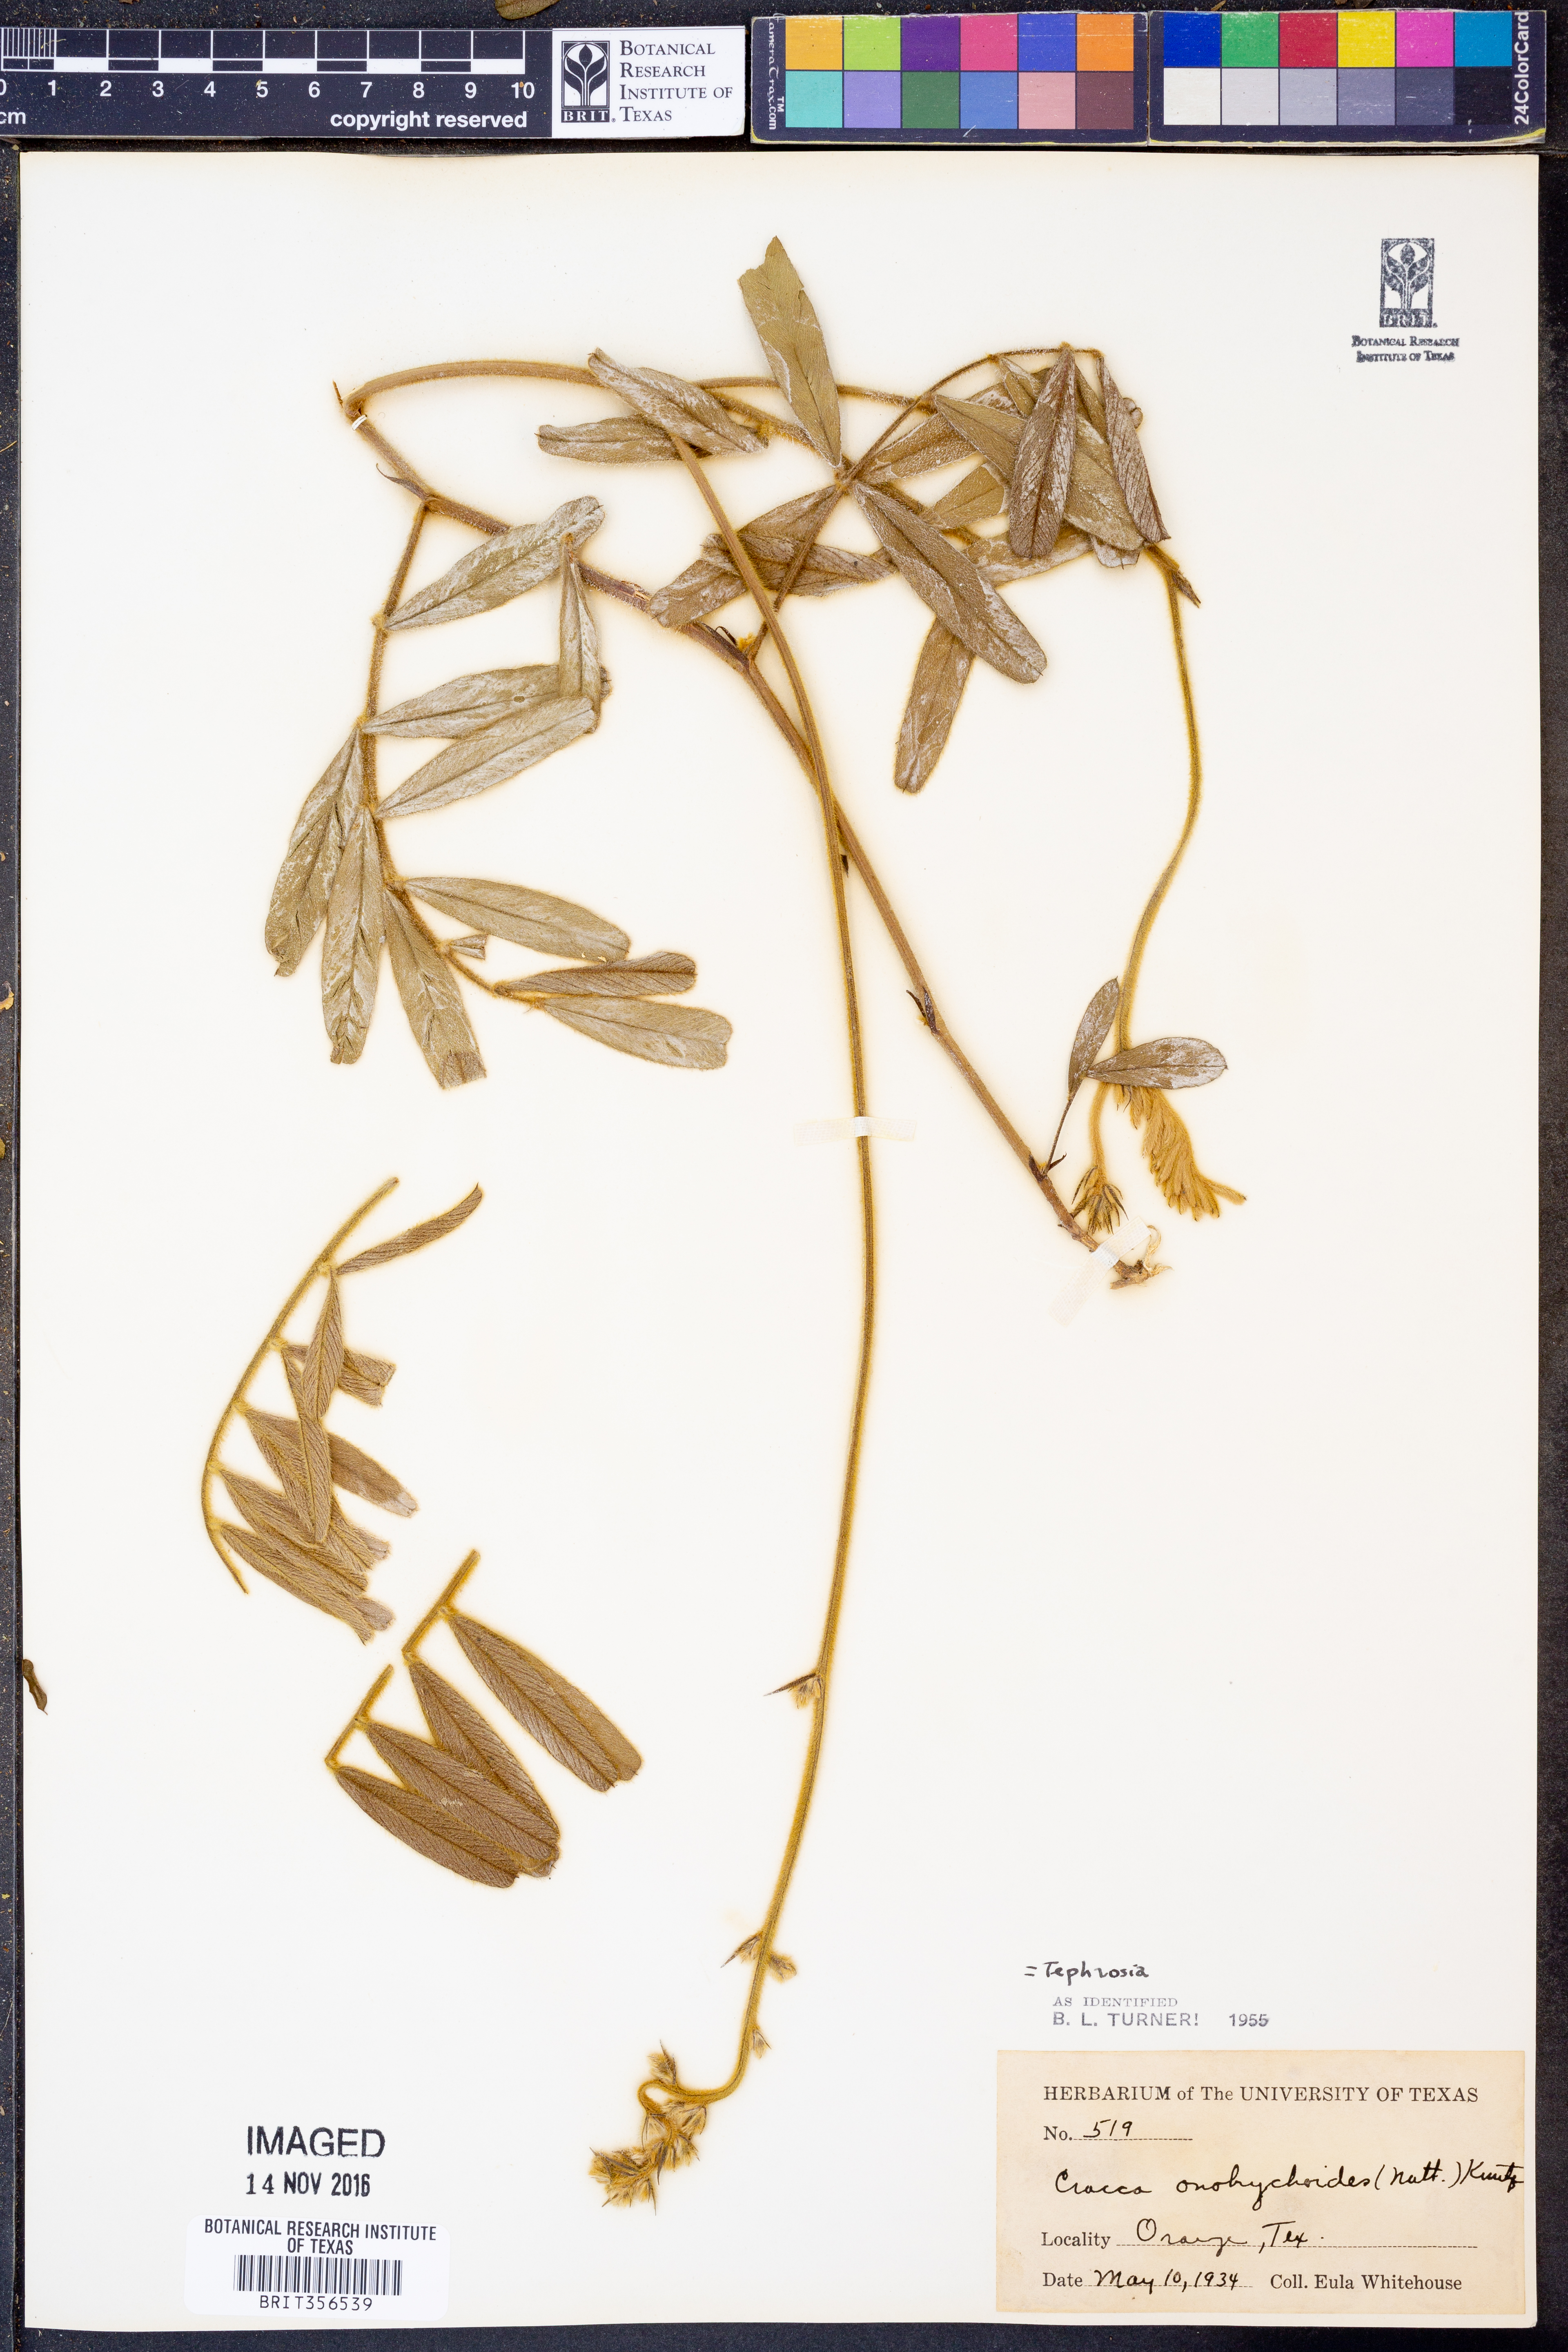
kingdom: Plantae
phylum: Tracheophyta
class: Magnoliopsida
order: Fabales
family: Fabaceae
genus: Tephrosia
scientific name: Tephrosia onobrychoides
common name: Multi-bloom hoary-pea
